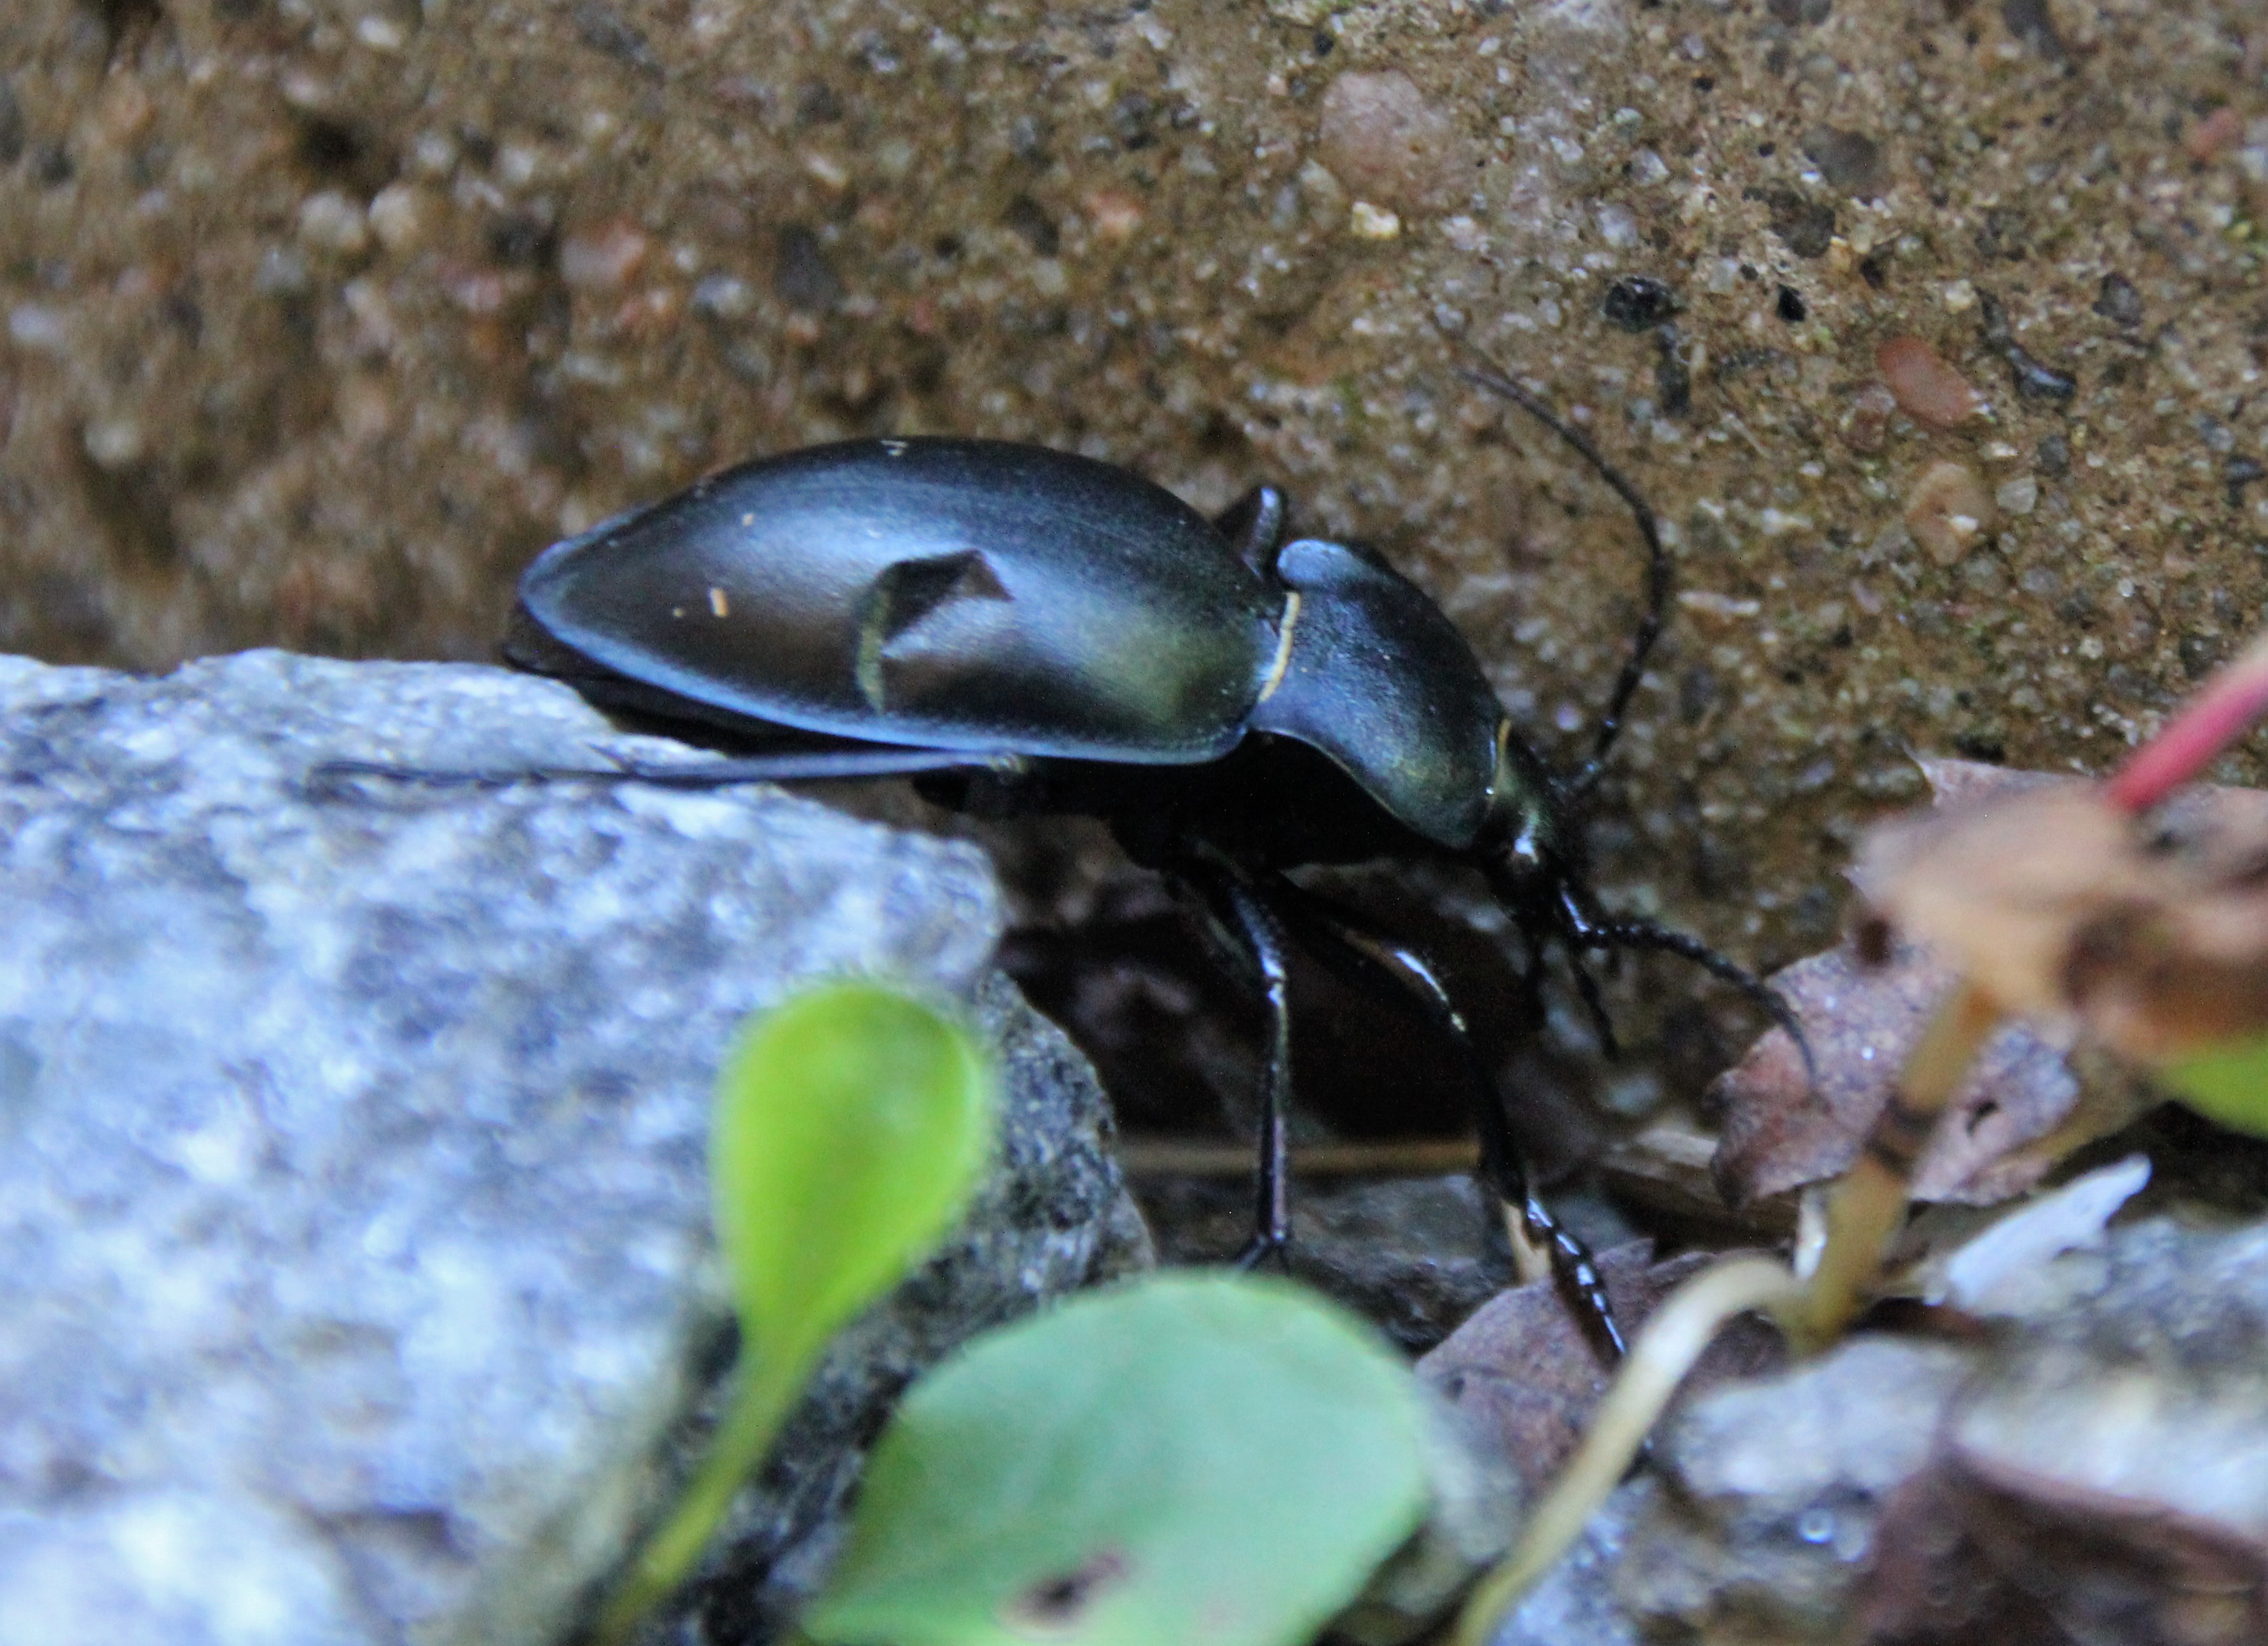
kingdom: Animalia
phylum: Arthropoda
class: Insecta
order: Coleoptera
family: Carabidae
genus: Carabus
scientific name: Carabus glabratus
